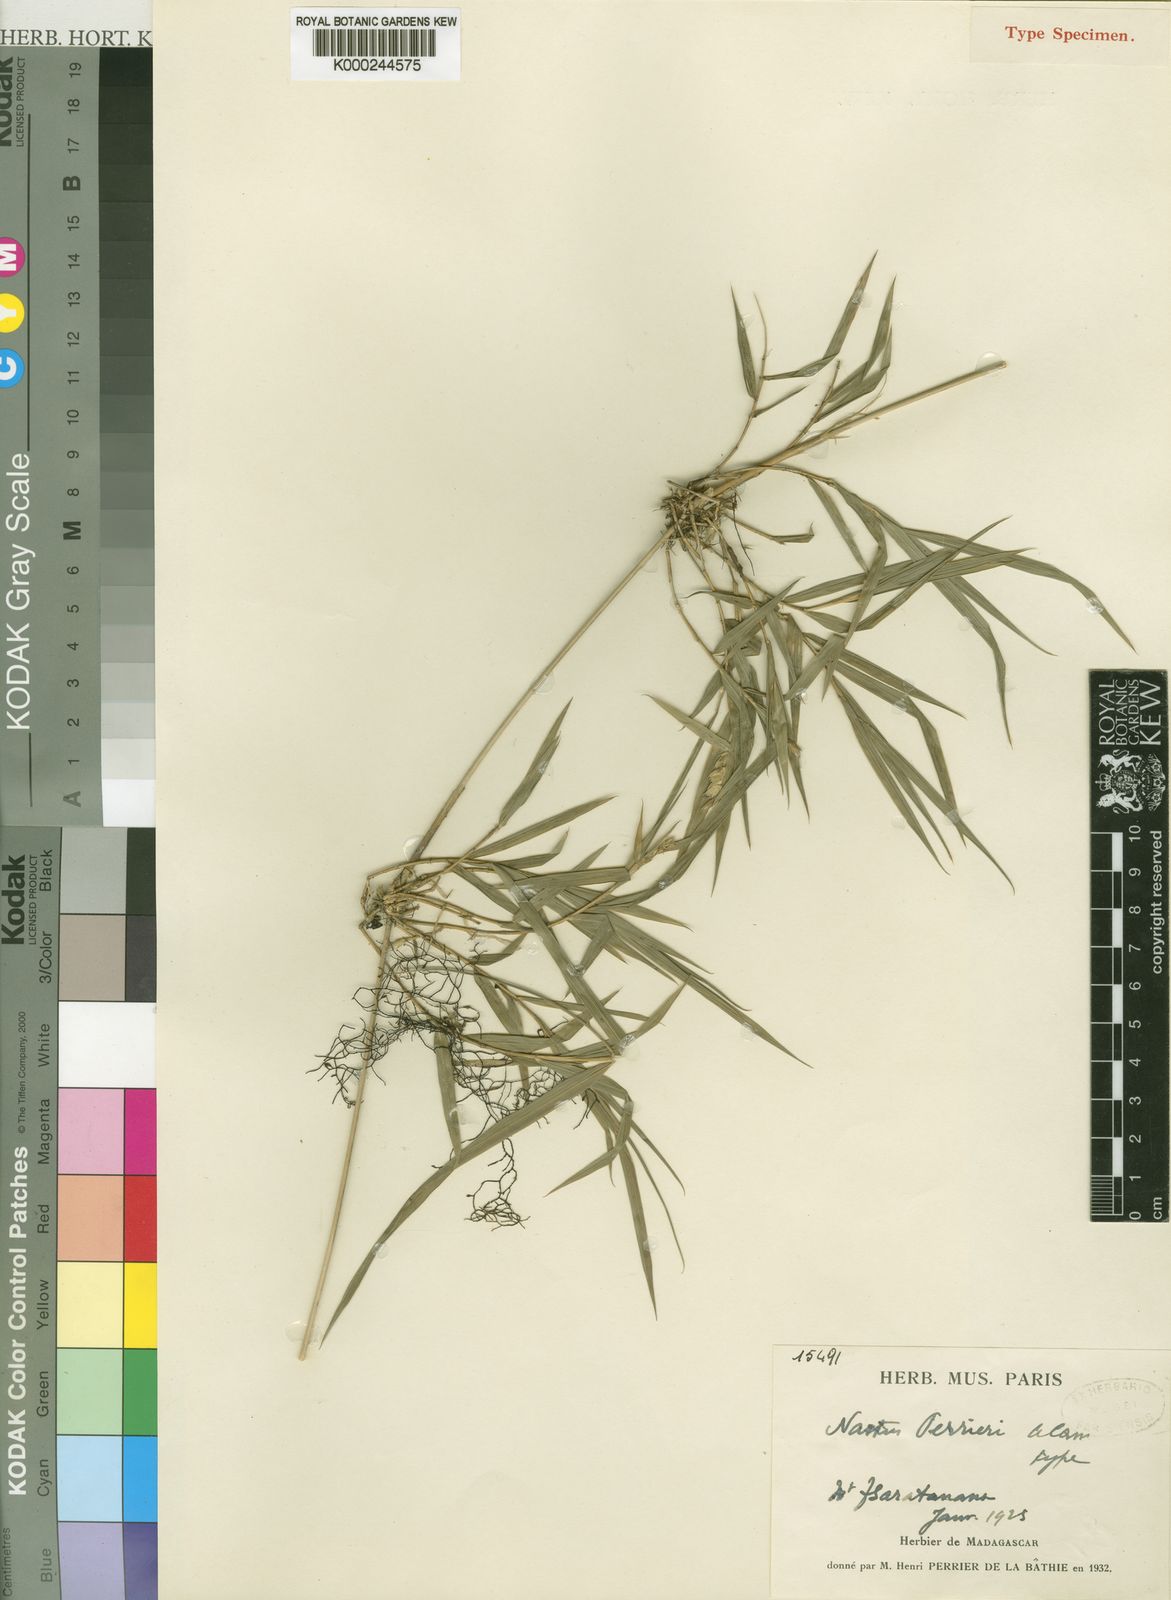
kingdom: Plantae
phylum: Tracheophyta
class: Liliopsida
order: Poales
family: Poaceae
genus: Nastus
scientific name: Nastus perrieri
